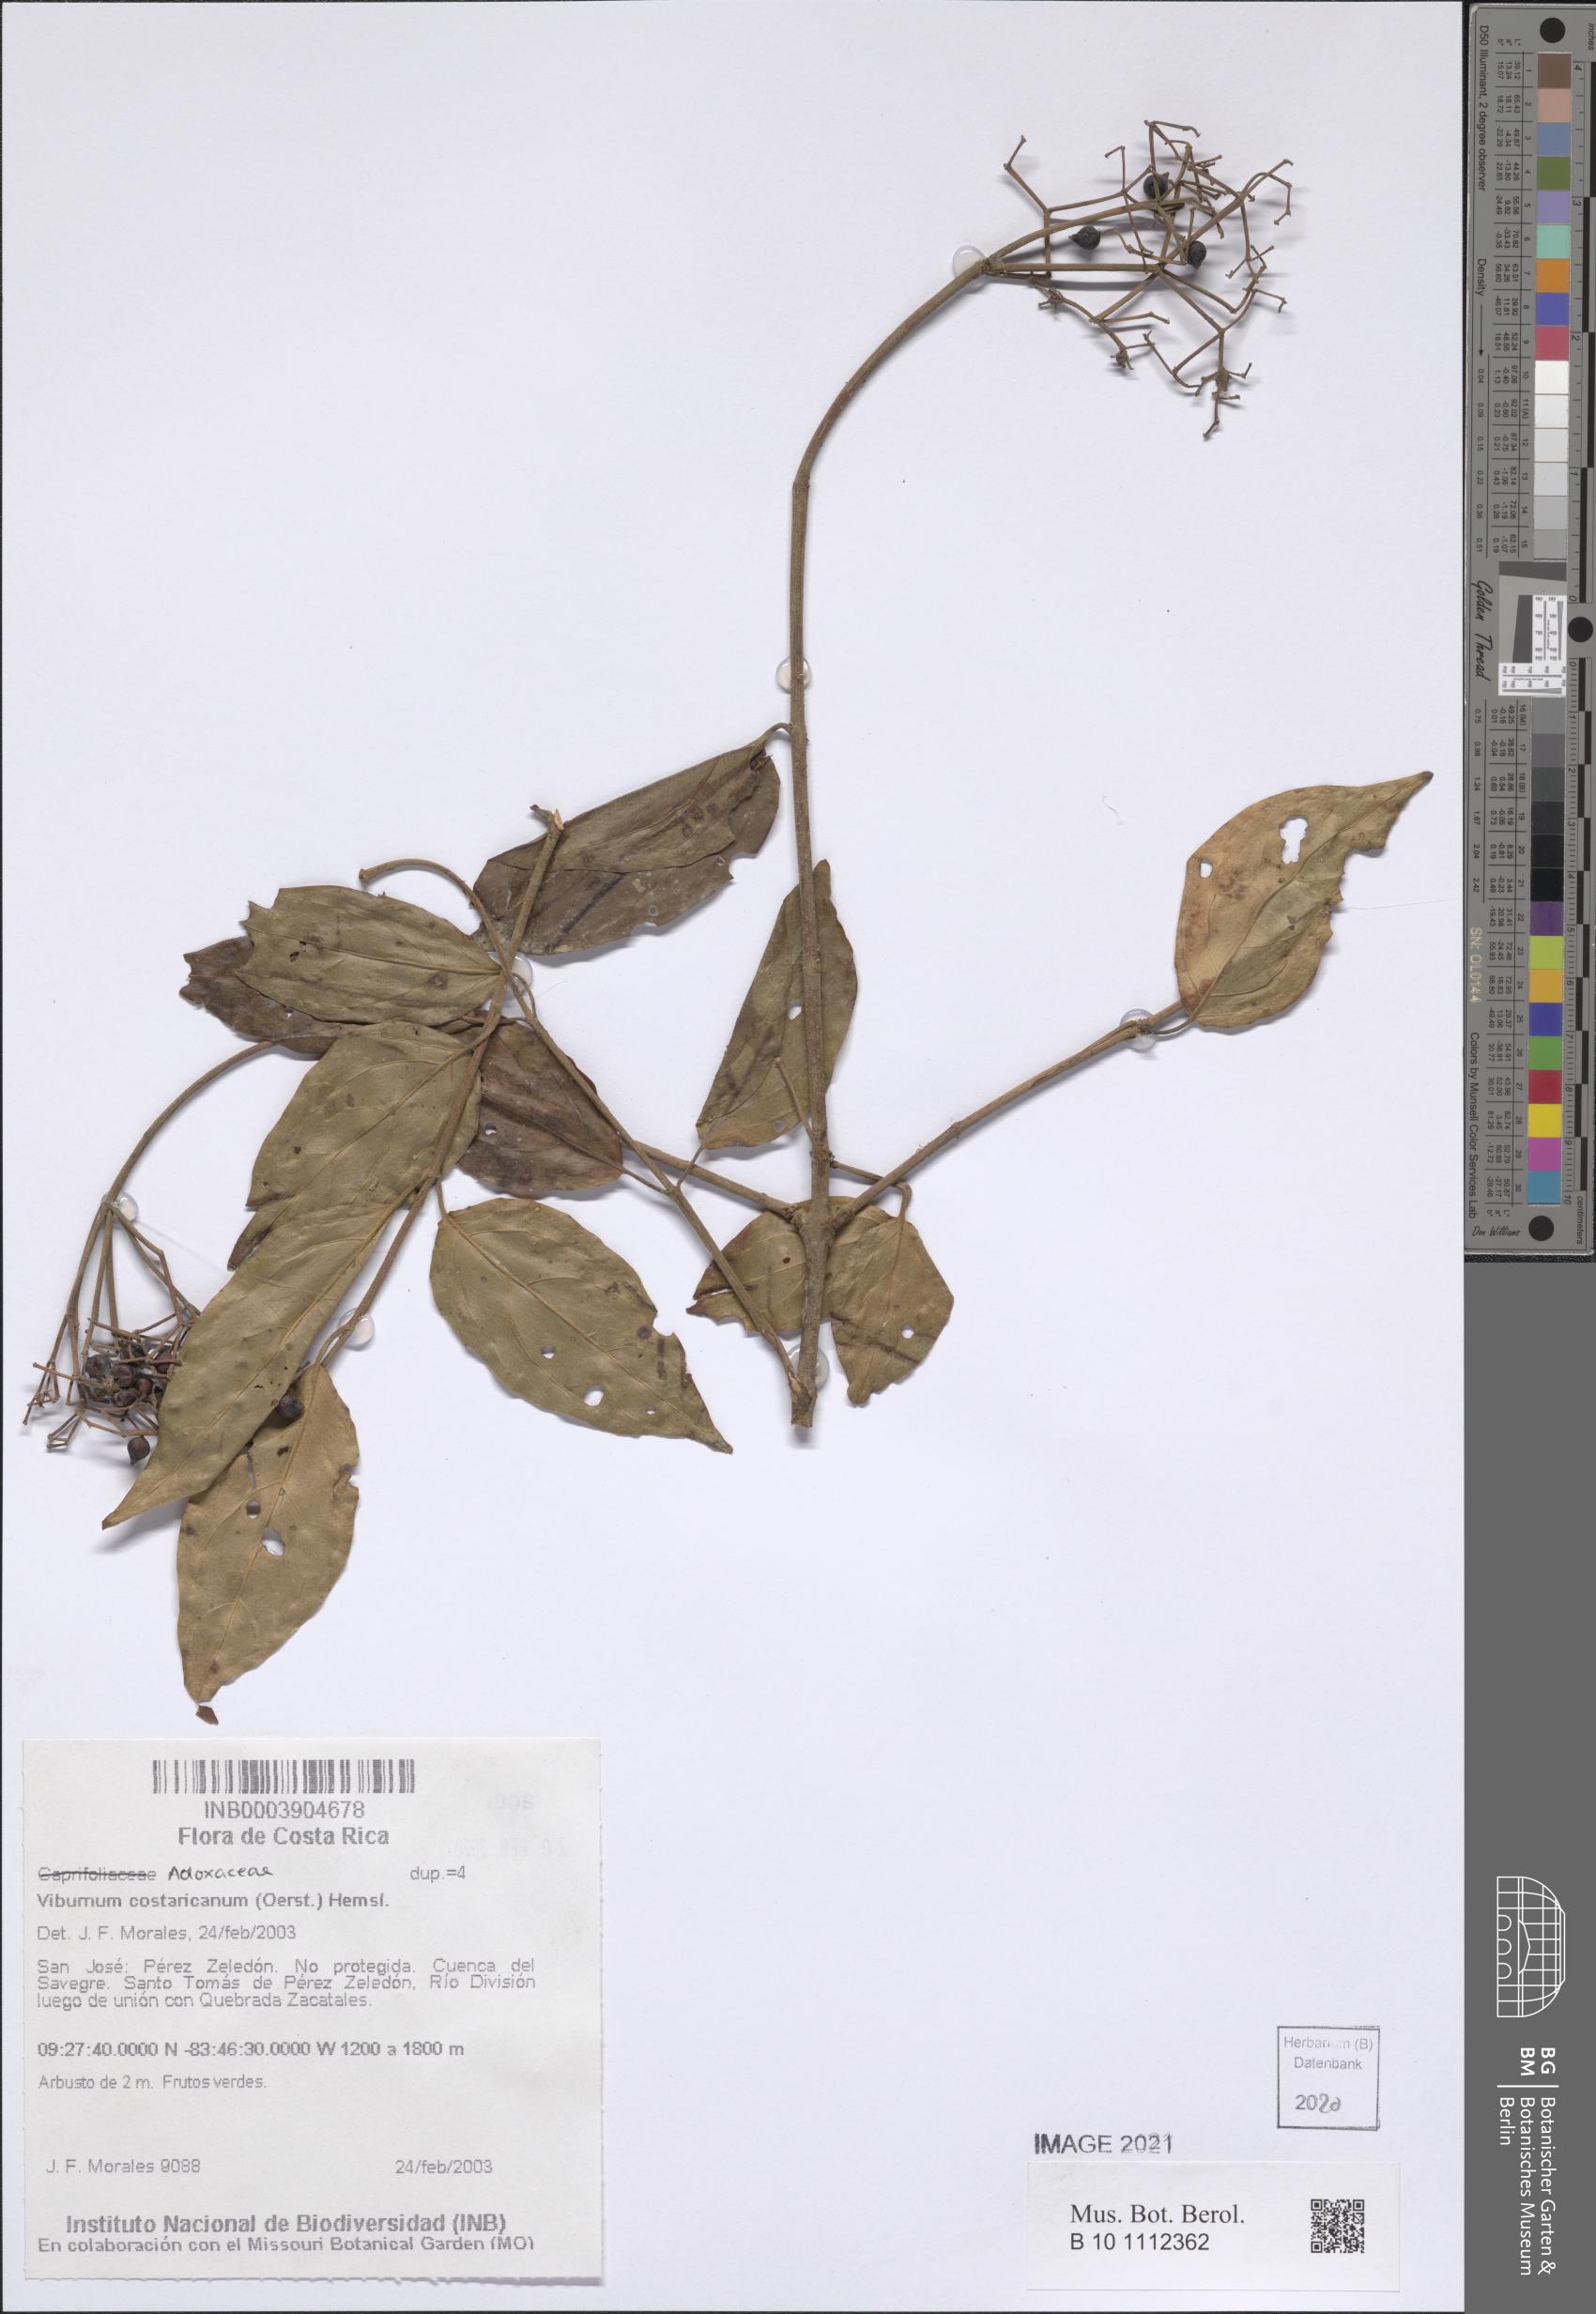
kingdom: Plantae
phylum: Tracheophyta
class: Magnoliopsida
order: Dipsacales
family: Viburnaceae
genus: Viburnum
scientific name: Viburnum costaricanum
